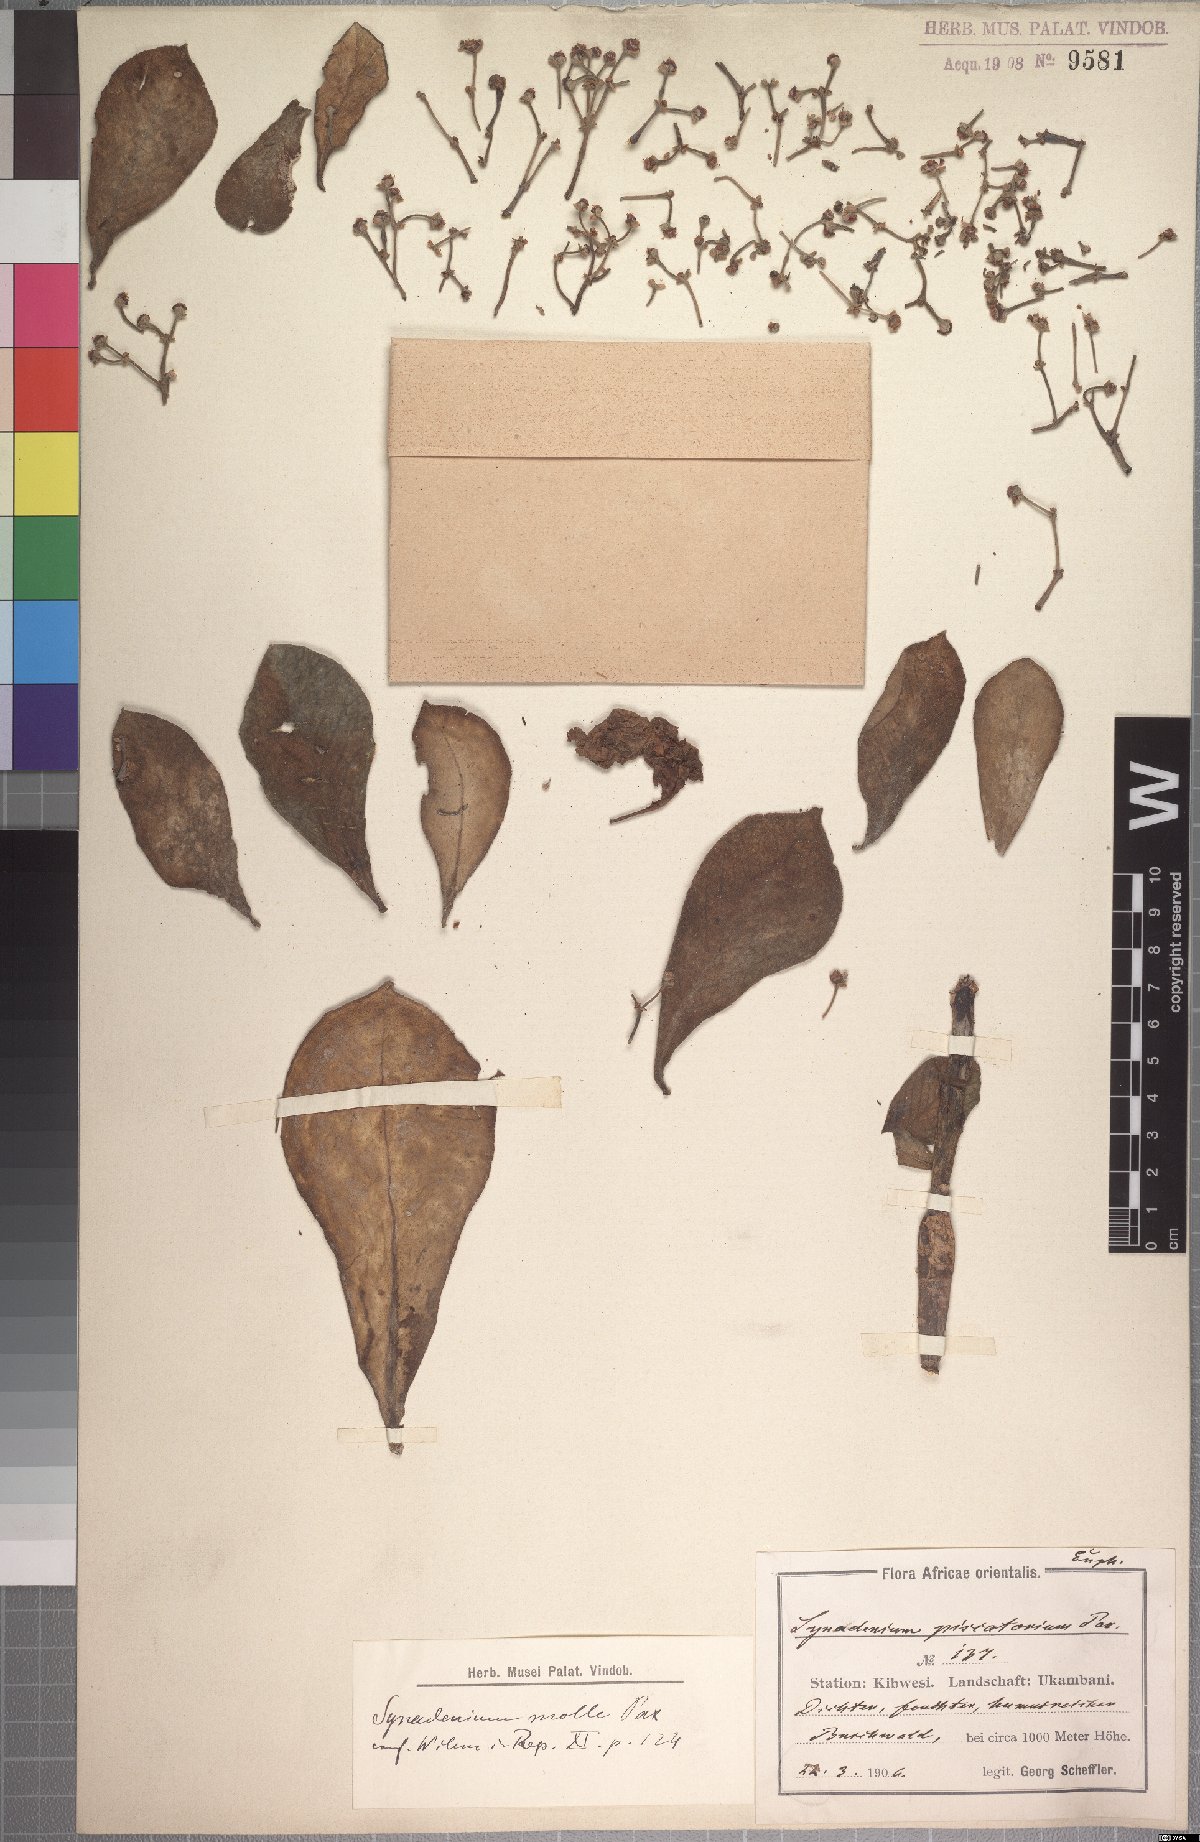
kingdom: Plantae
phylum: Tracheophyta
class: Magnoliopsida
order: Malpighiales
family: Euphorbiaceae
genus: Euphorbia
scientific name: Euphorbia pseudomollis
